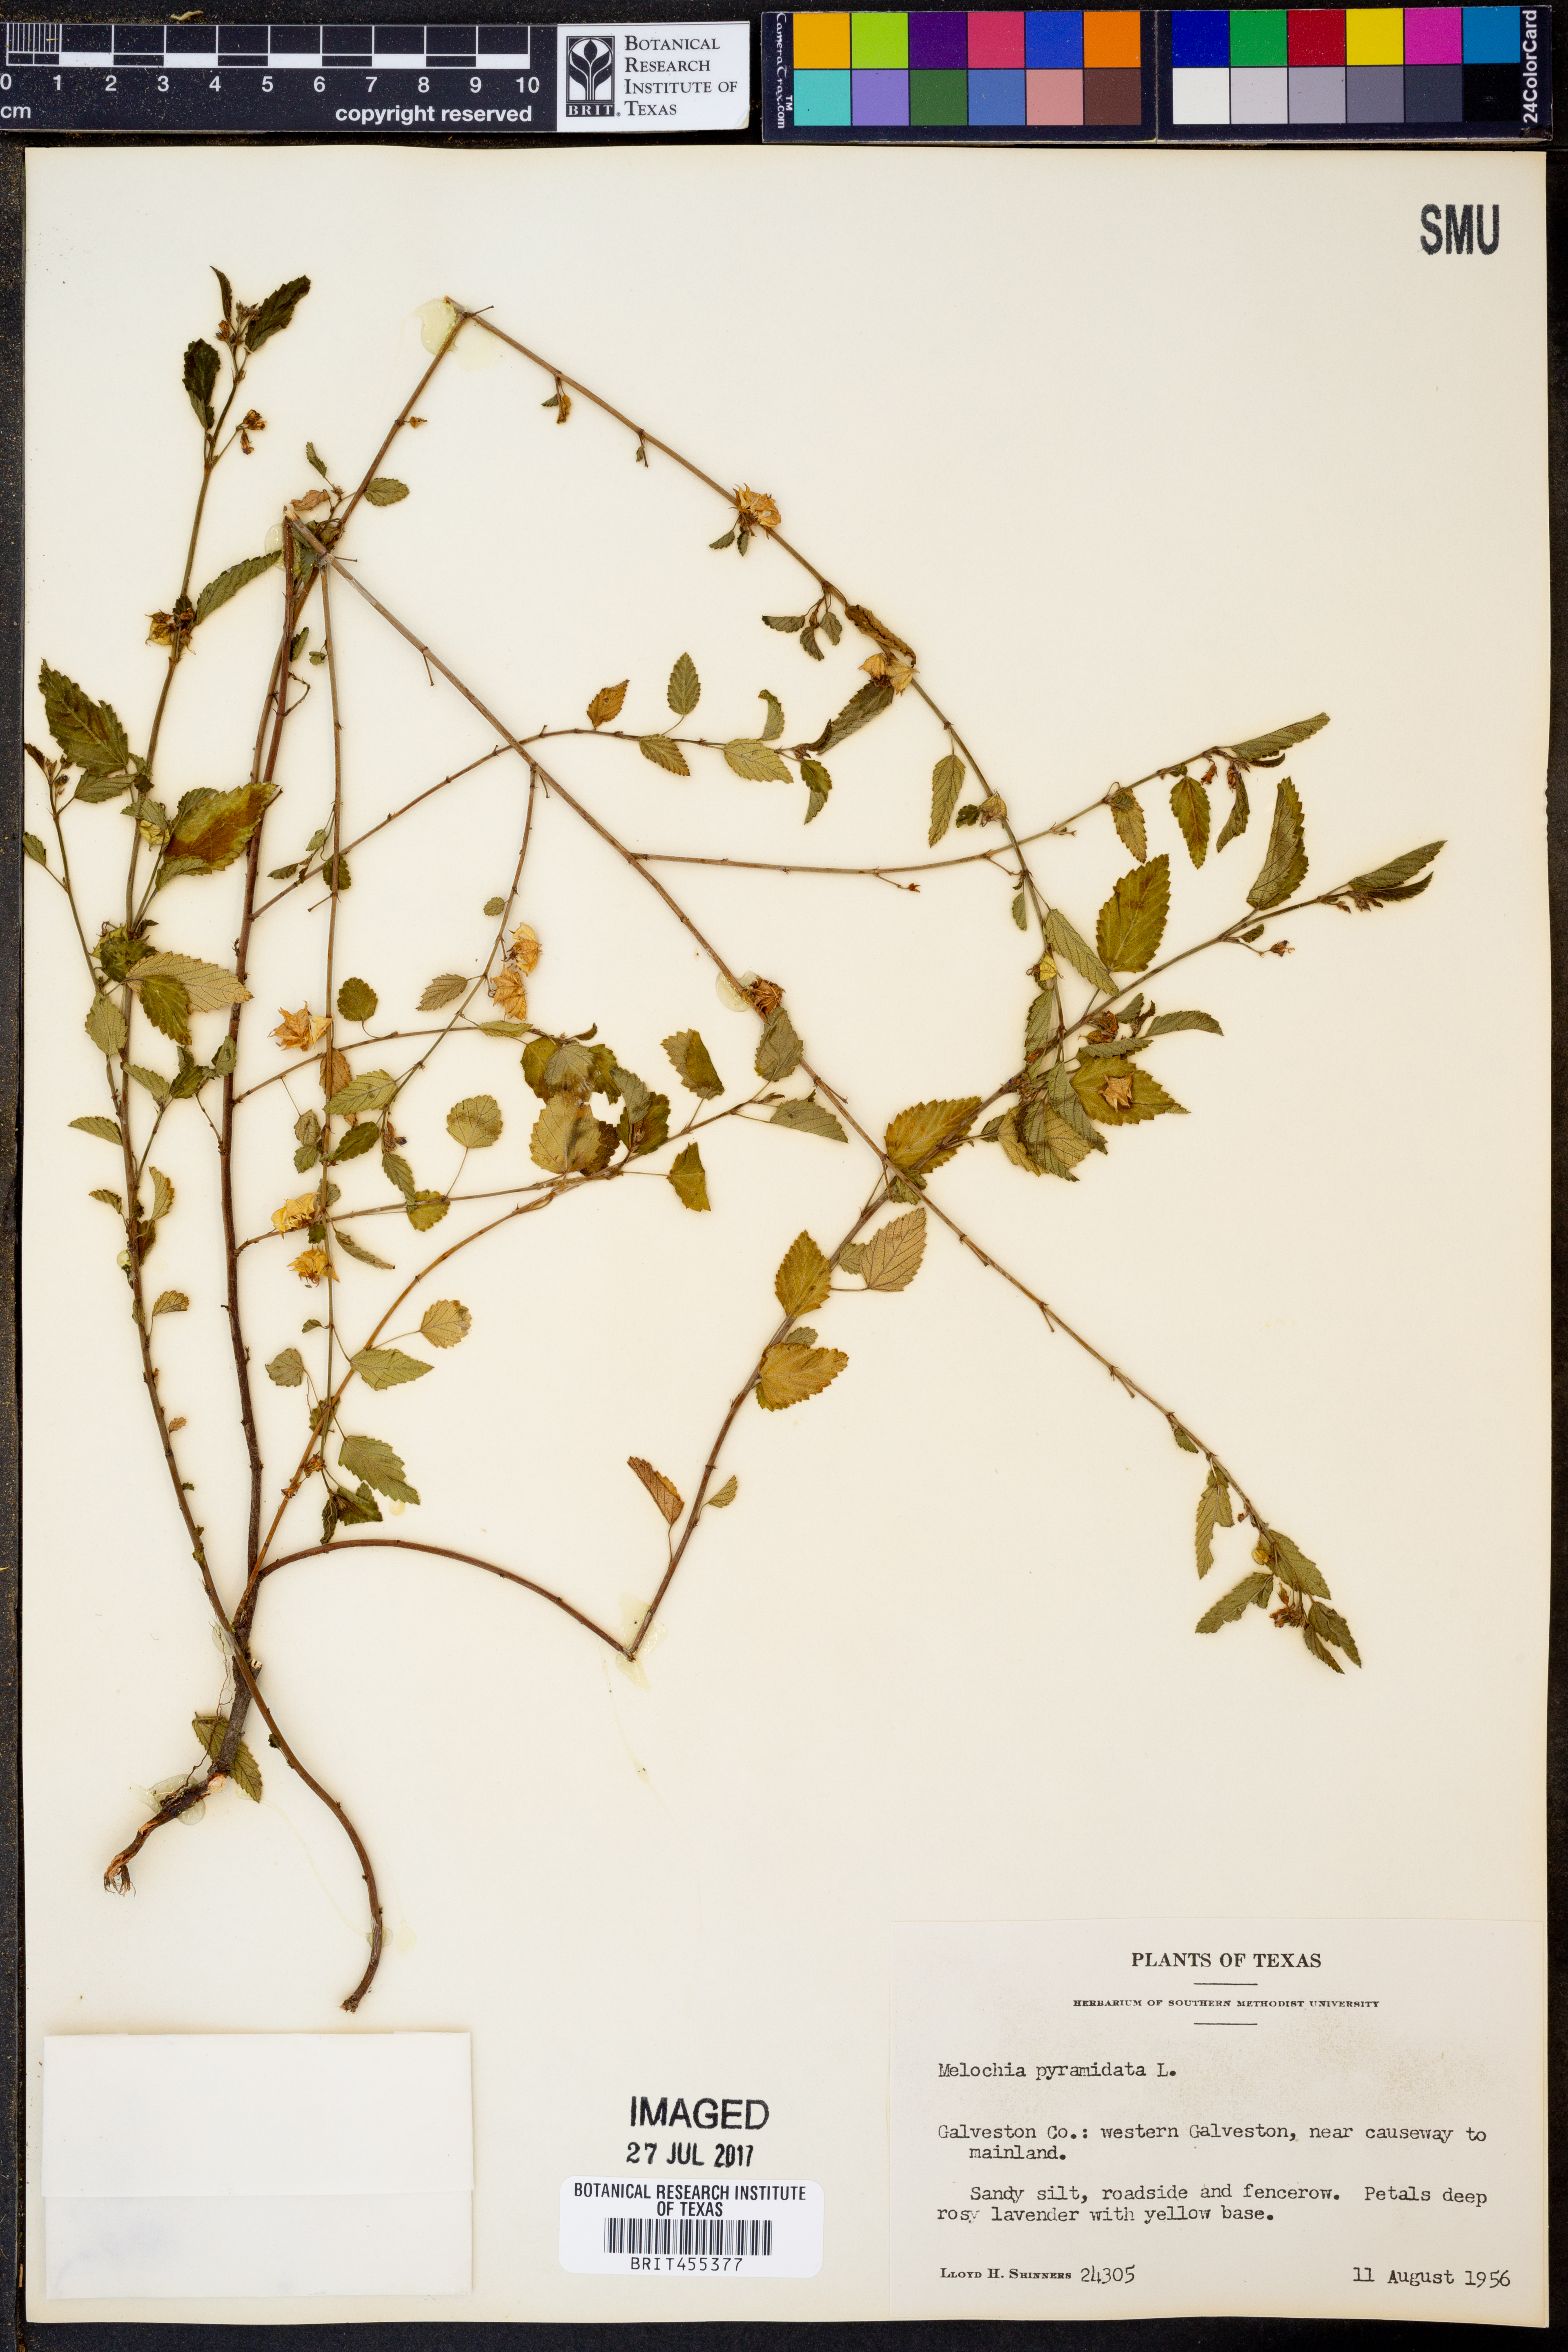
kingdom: Plantae
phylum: Tracheophyta
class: Magnoliopsida
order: Malvales
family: Malvaceae
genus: Melochia
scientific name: Melochia pyramidata
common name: Pyramidflower
